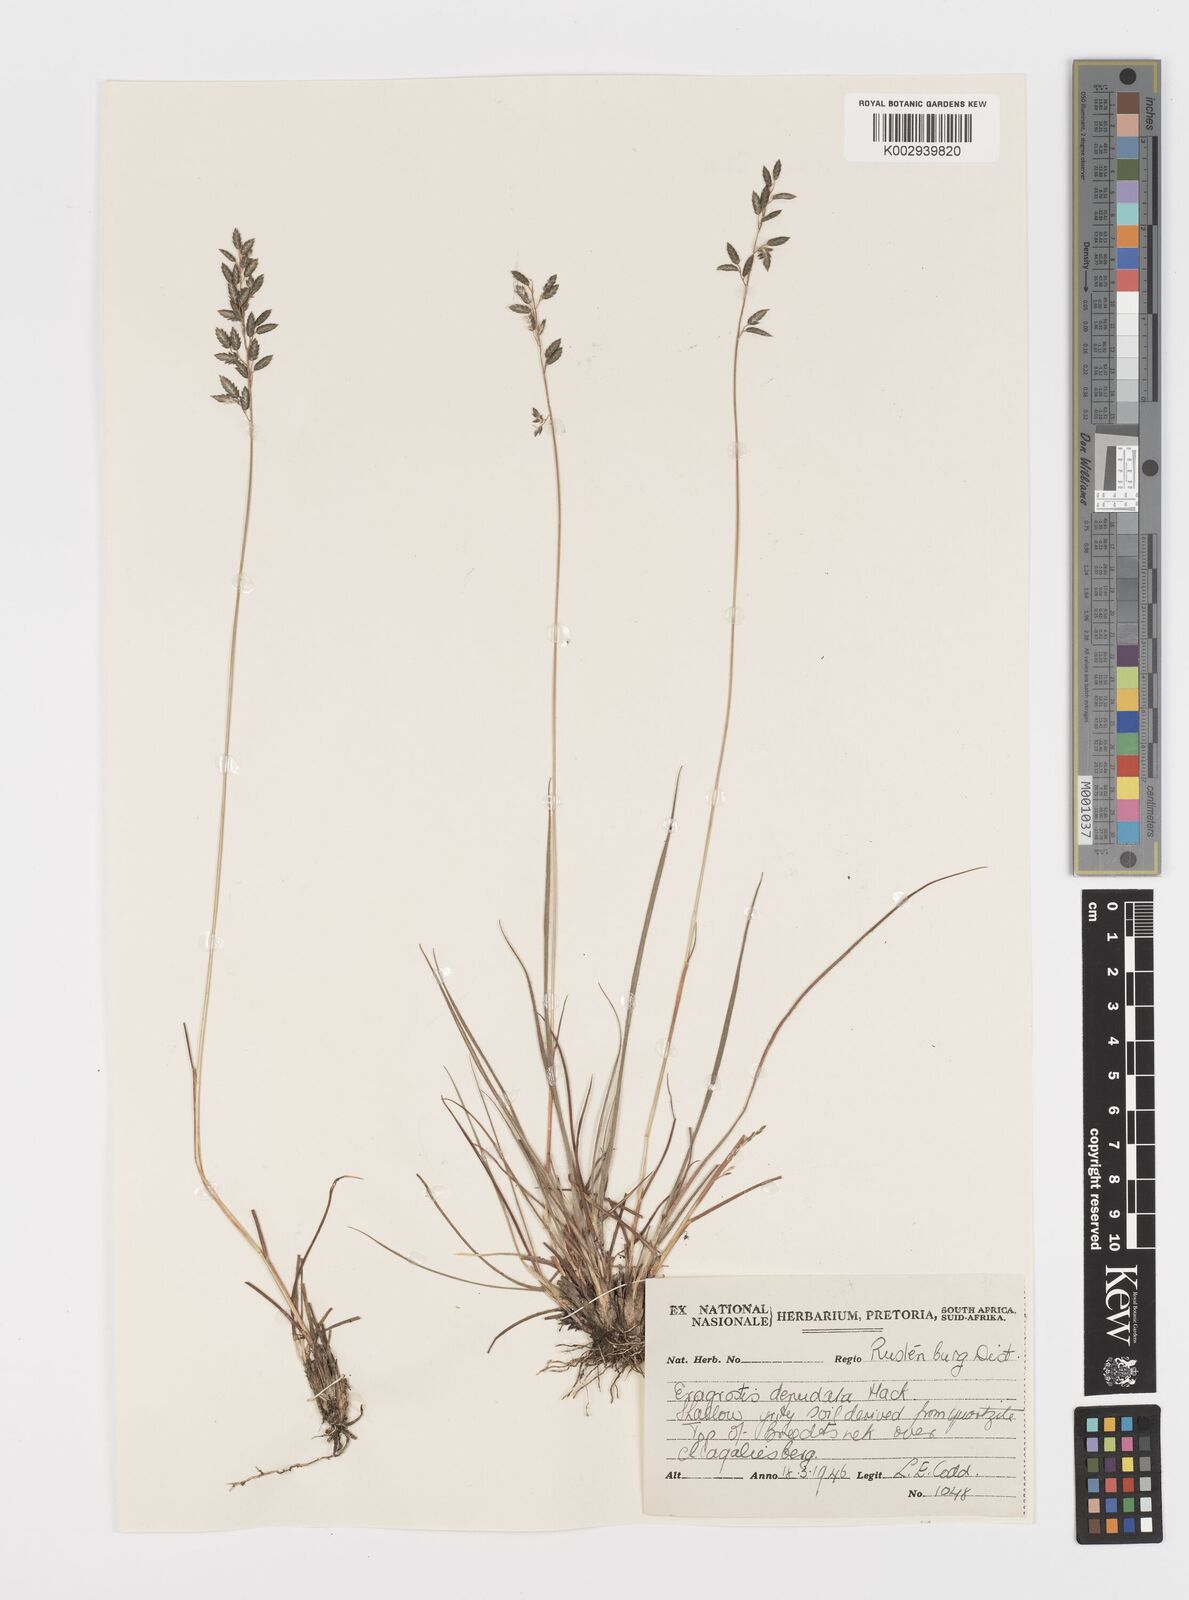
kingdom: Plantae
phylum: Tracheophyta
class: Liliopsida
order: Poales
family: Poaceae
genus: Eragrostis
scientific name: Eragrostis nindensis
